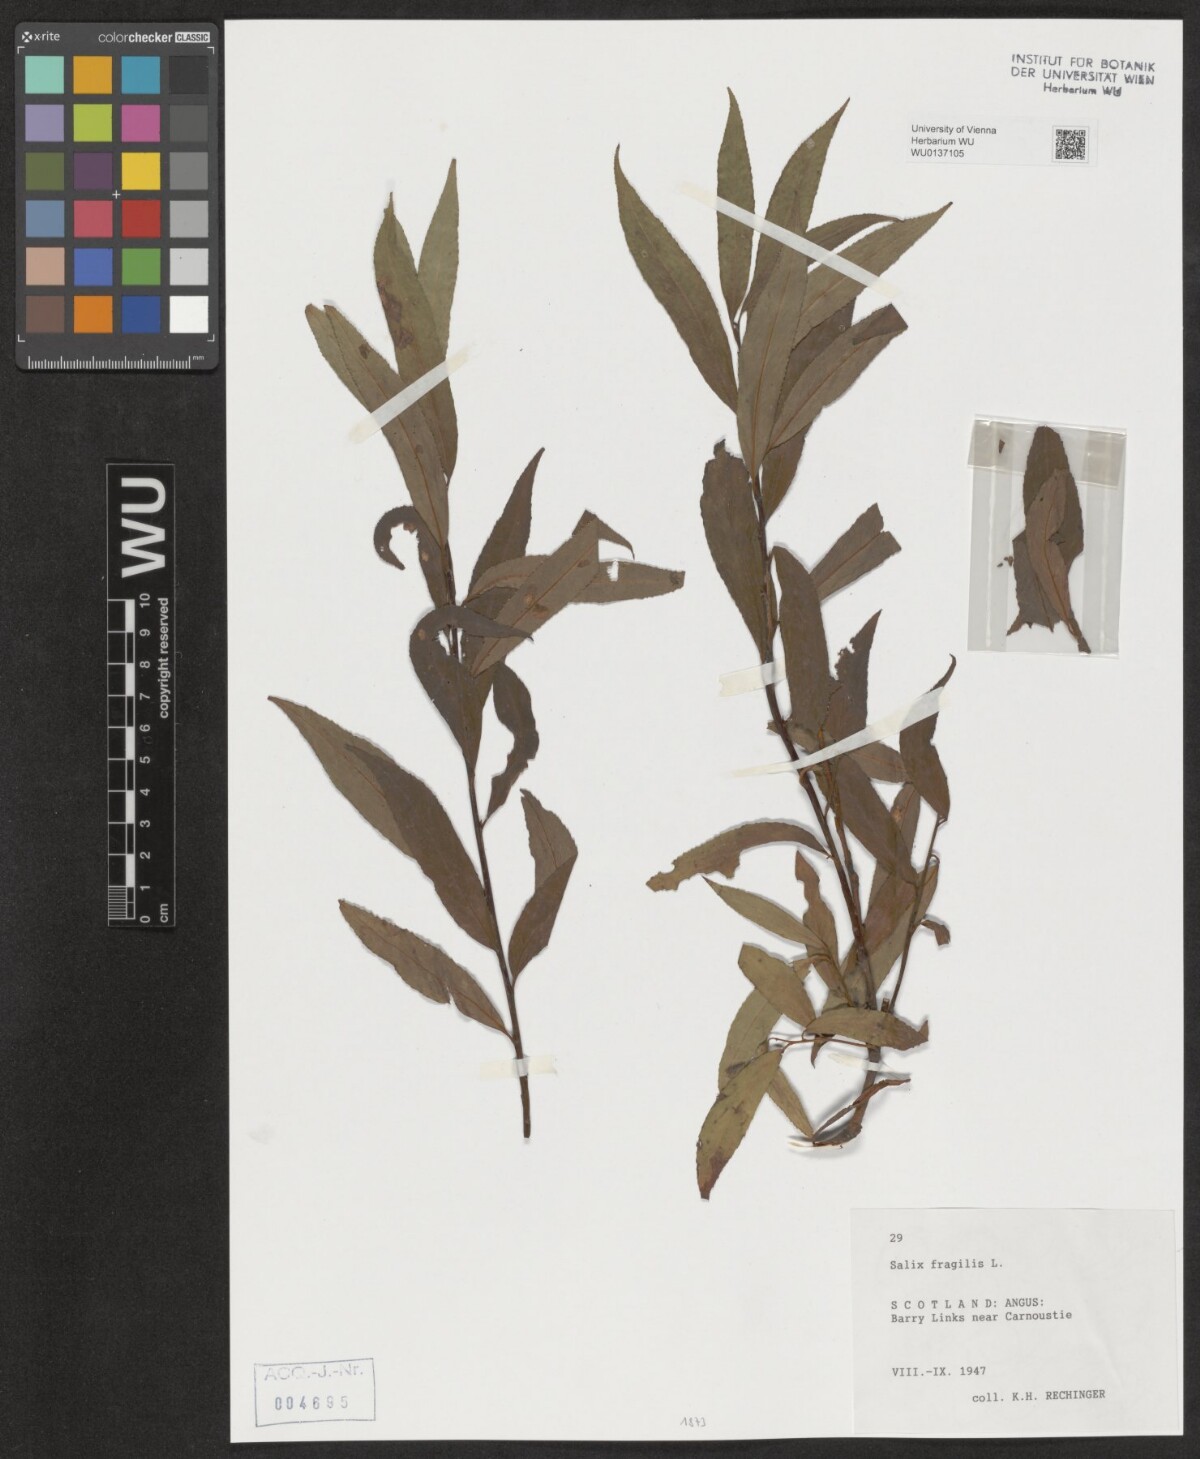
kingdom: Plantae
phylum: Tracheophyta
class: Magnoliopsida
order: Malpighiales
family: Salicaceae
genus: Salix
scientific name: Salix fragilis
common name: Crack willow
